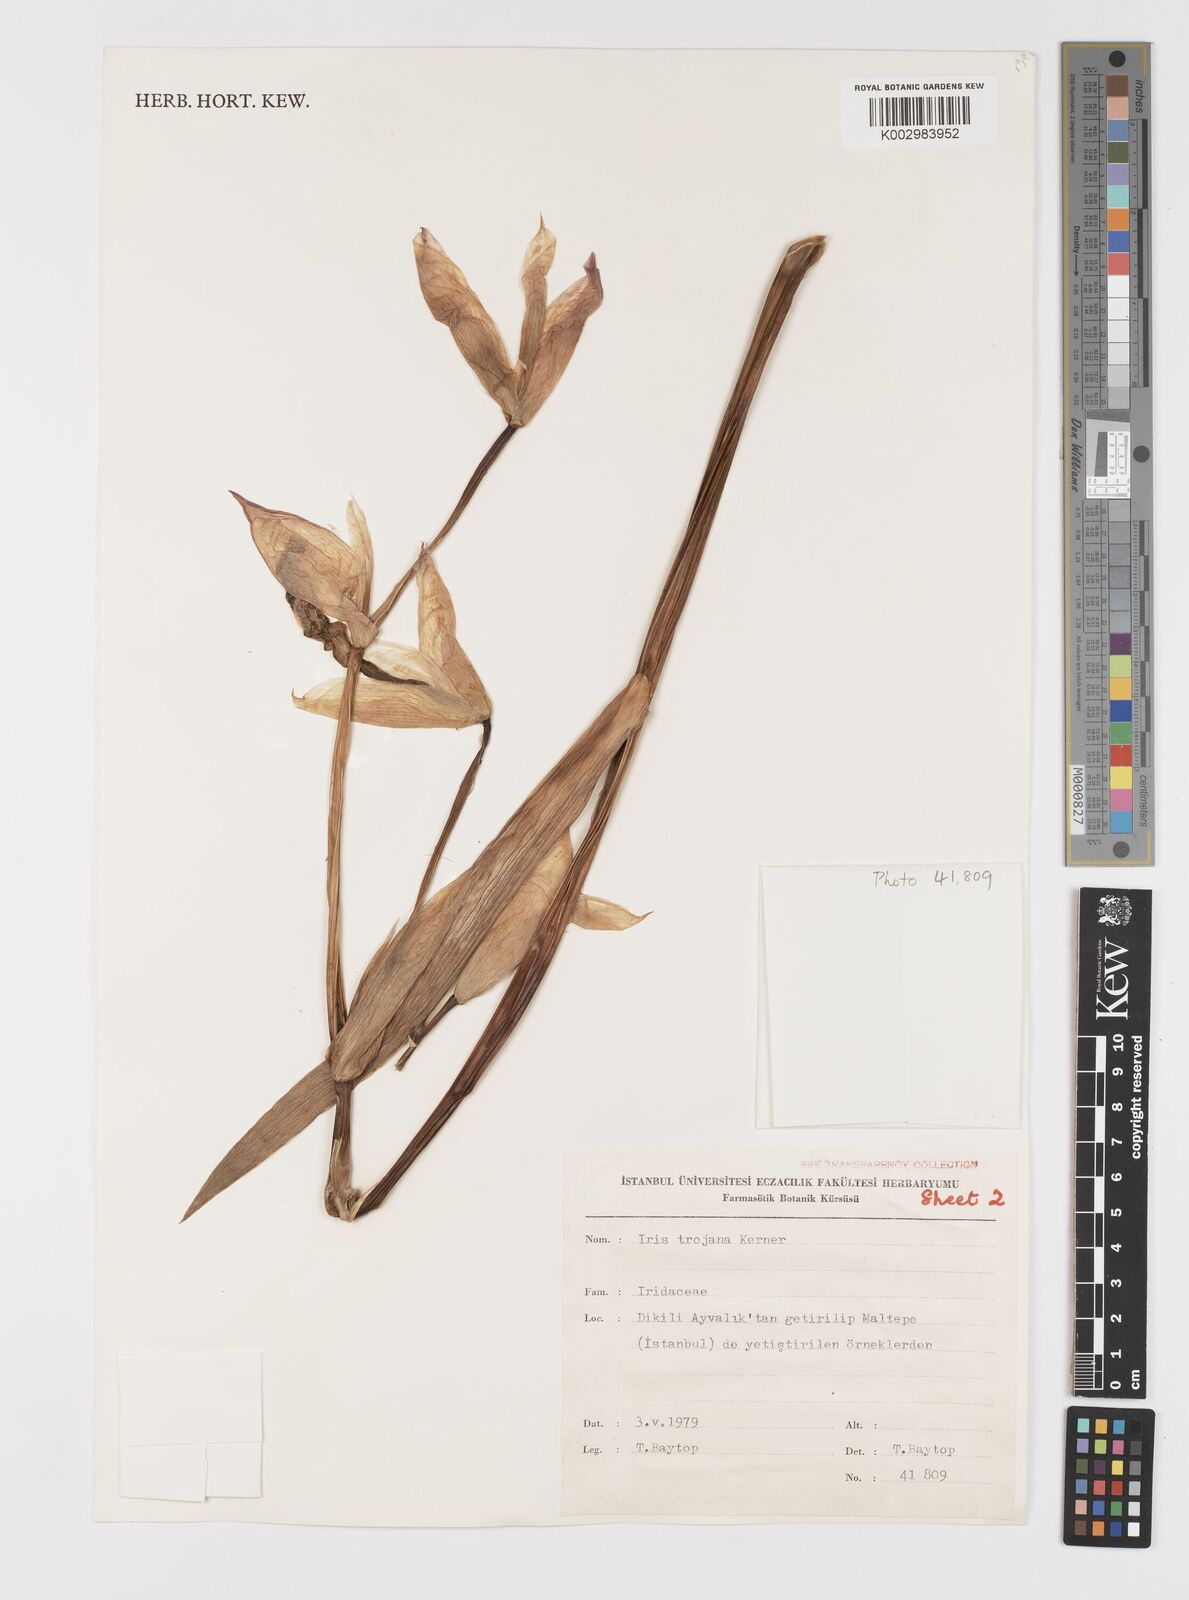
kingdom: Plantae
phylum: Tracheophyta
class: Liliopsida
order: Asparagales
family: Iridaceae
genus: Iris
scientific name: Iris germanica
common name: German iris
